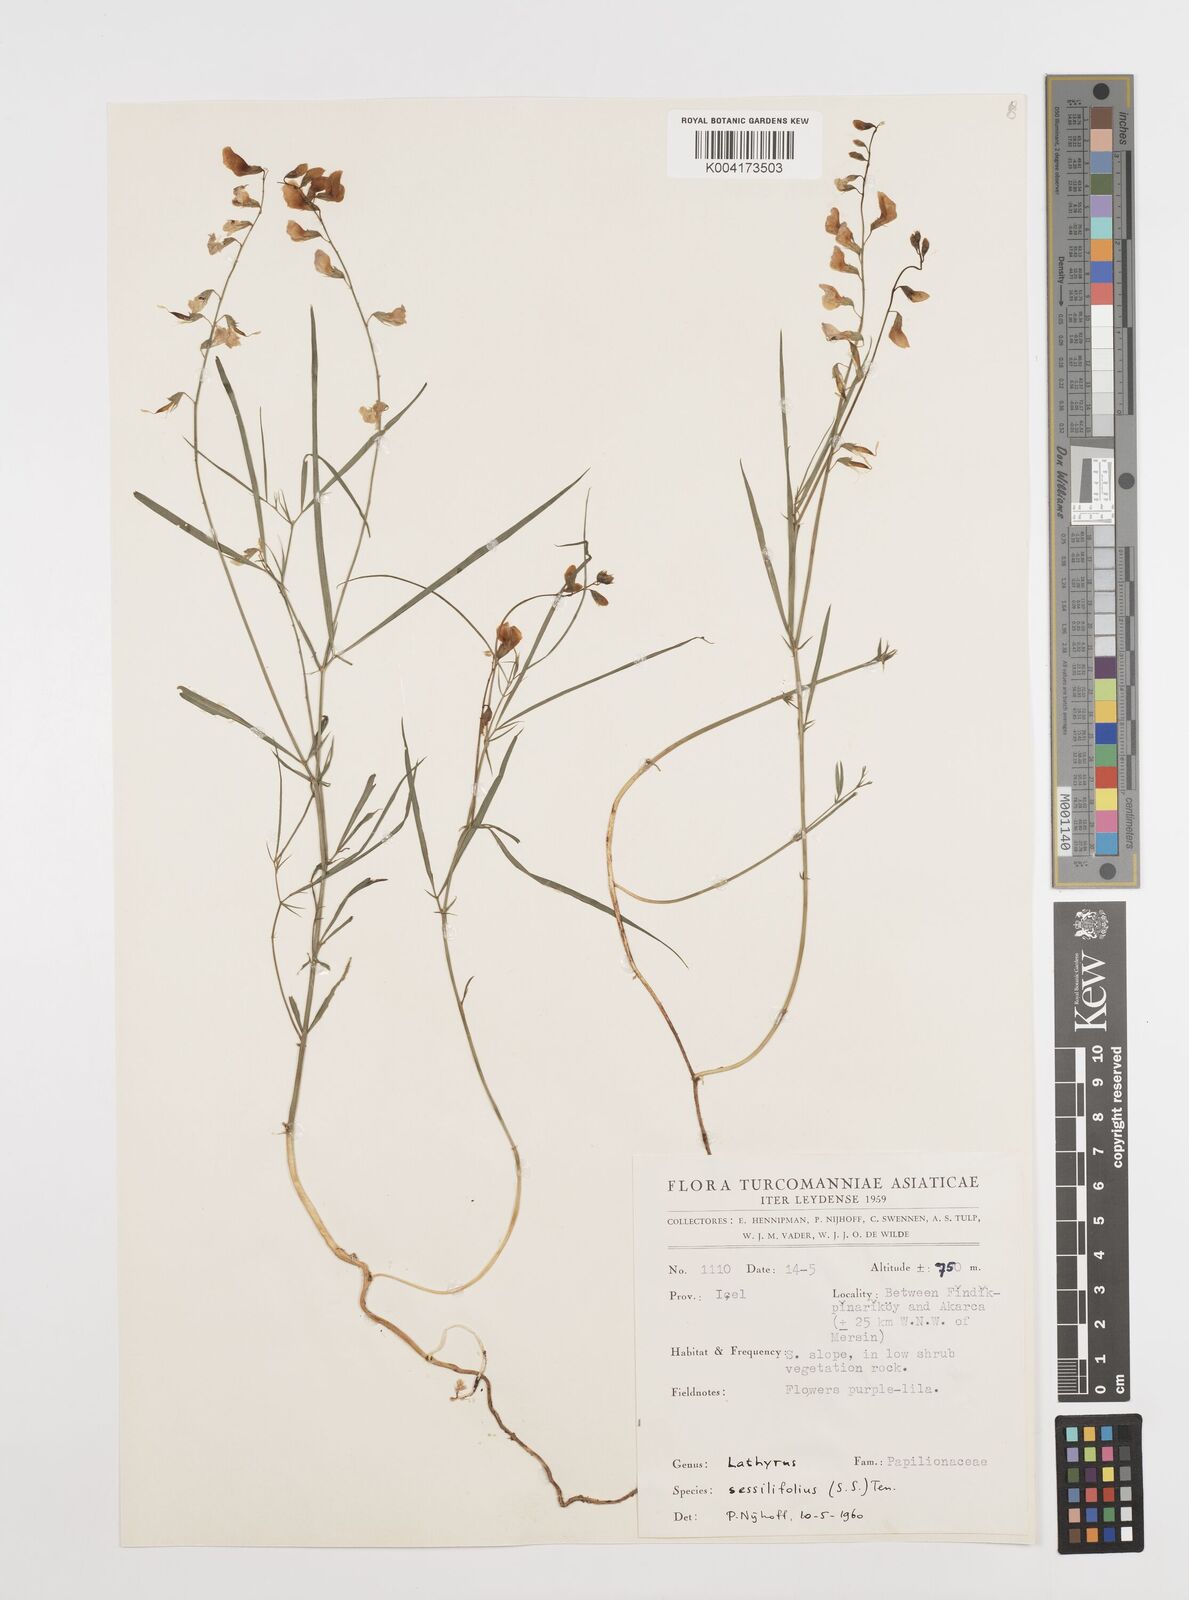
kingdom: Plantae
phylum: Tracheophyta
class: Magnoliopsida
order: Fabales
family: Fabaceae
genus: Lathyrus
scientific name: Lathyrus spathulatus
